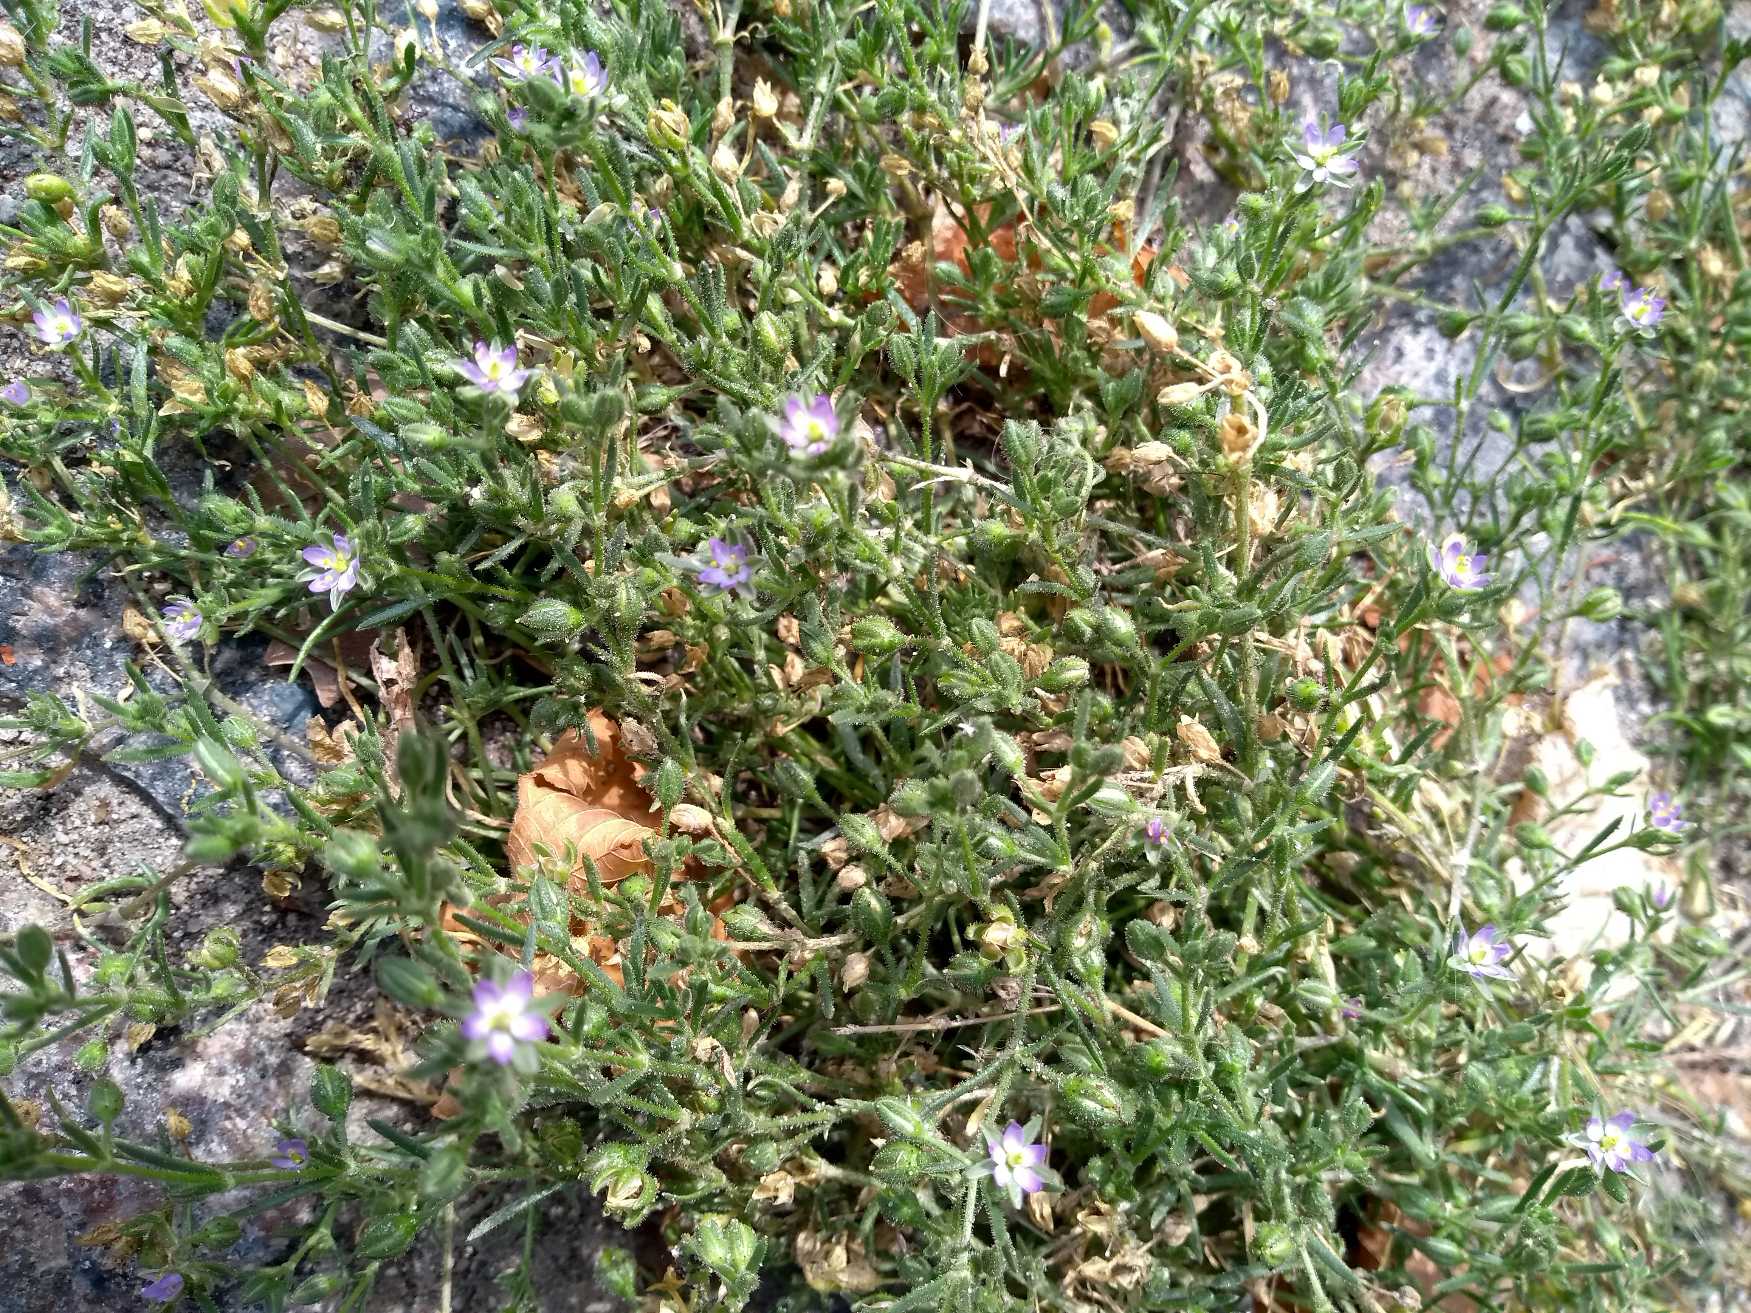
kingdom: Plantae
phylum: Tracheophyta
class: Magnoliopsida
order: Caryophyllales
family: Caryophyllaceae
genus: Spergularia
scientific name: Spergularia marina
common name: Kødet hindeknæ
